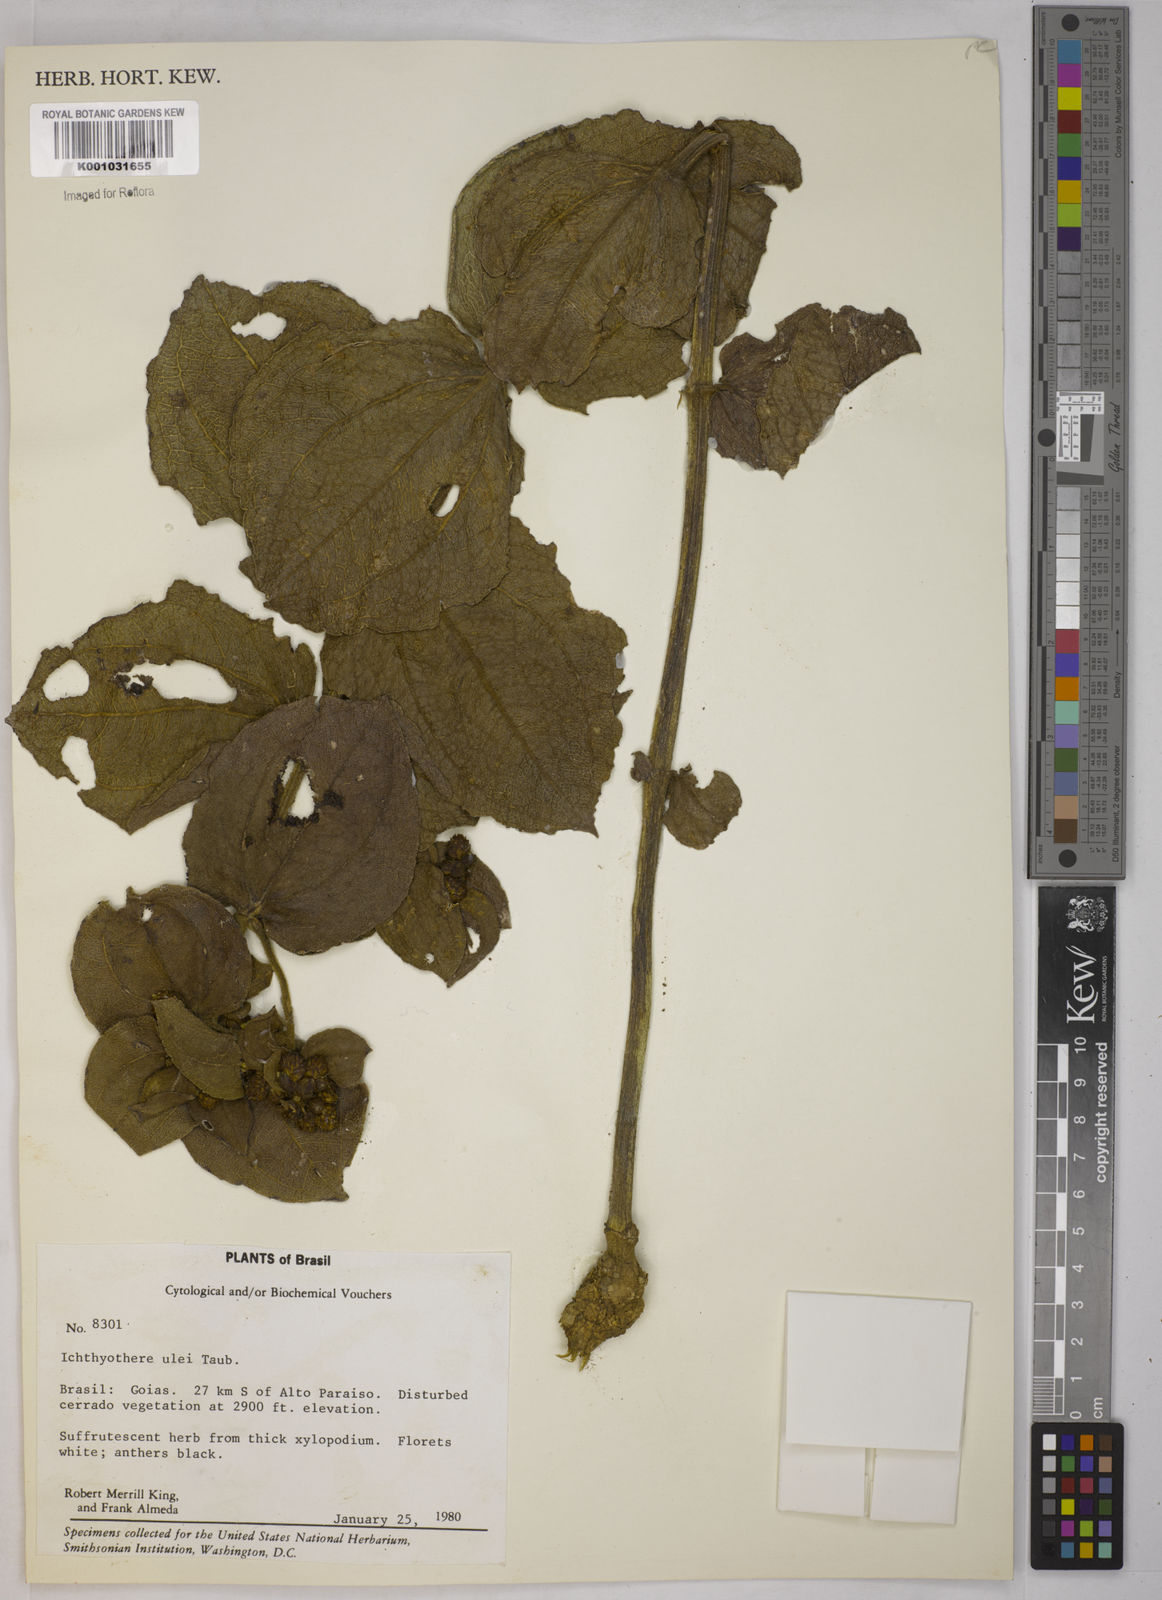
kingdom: Plantae
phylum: Tracheophyta
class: Magnoliopsida
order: Asterales
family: Asteraceae
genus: Ichthyothere
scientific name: Ichthyothere ulei
